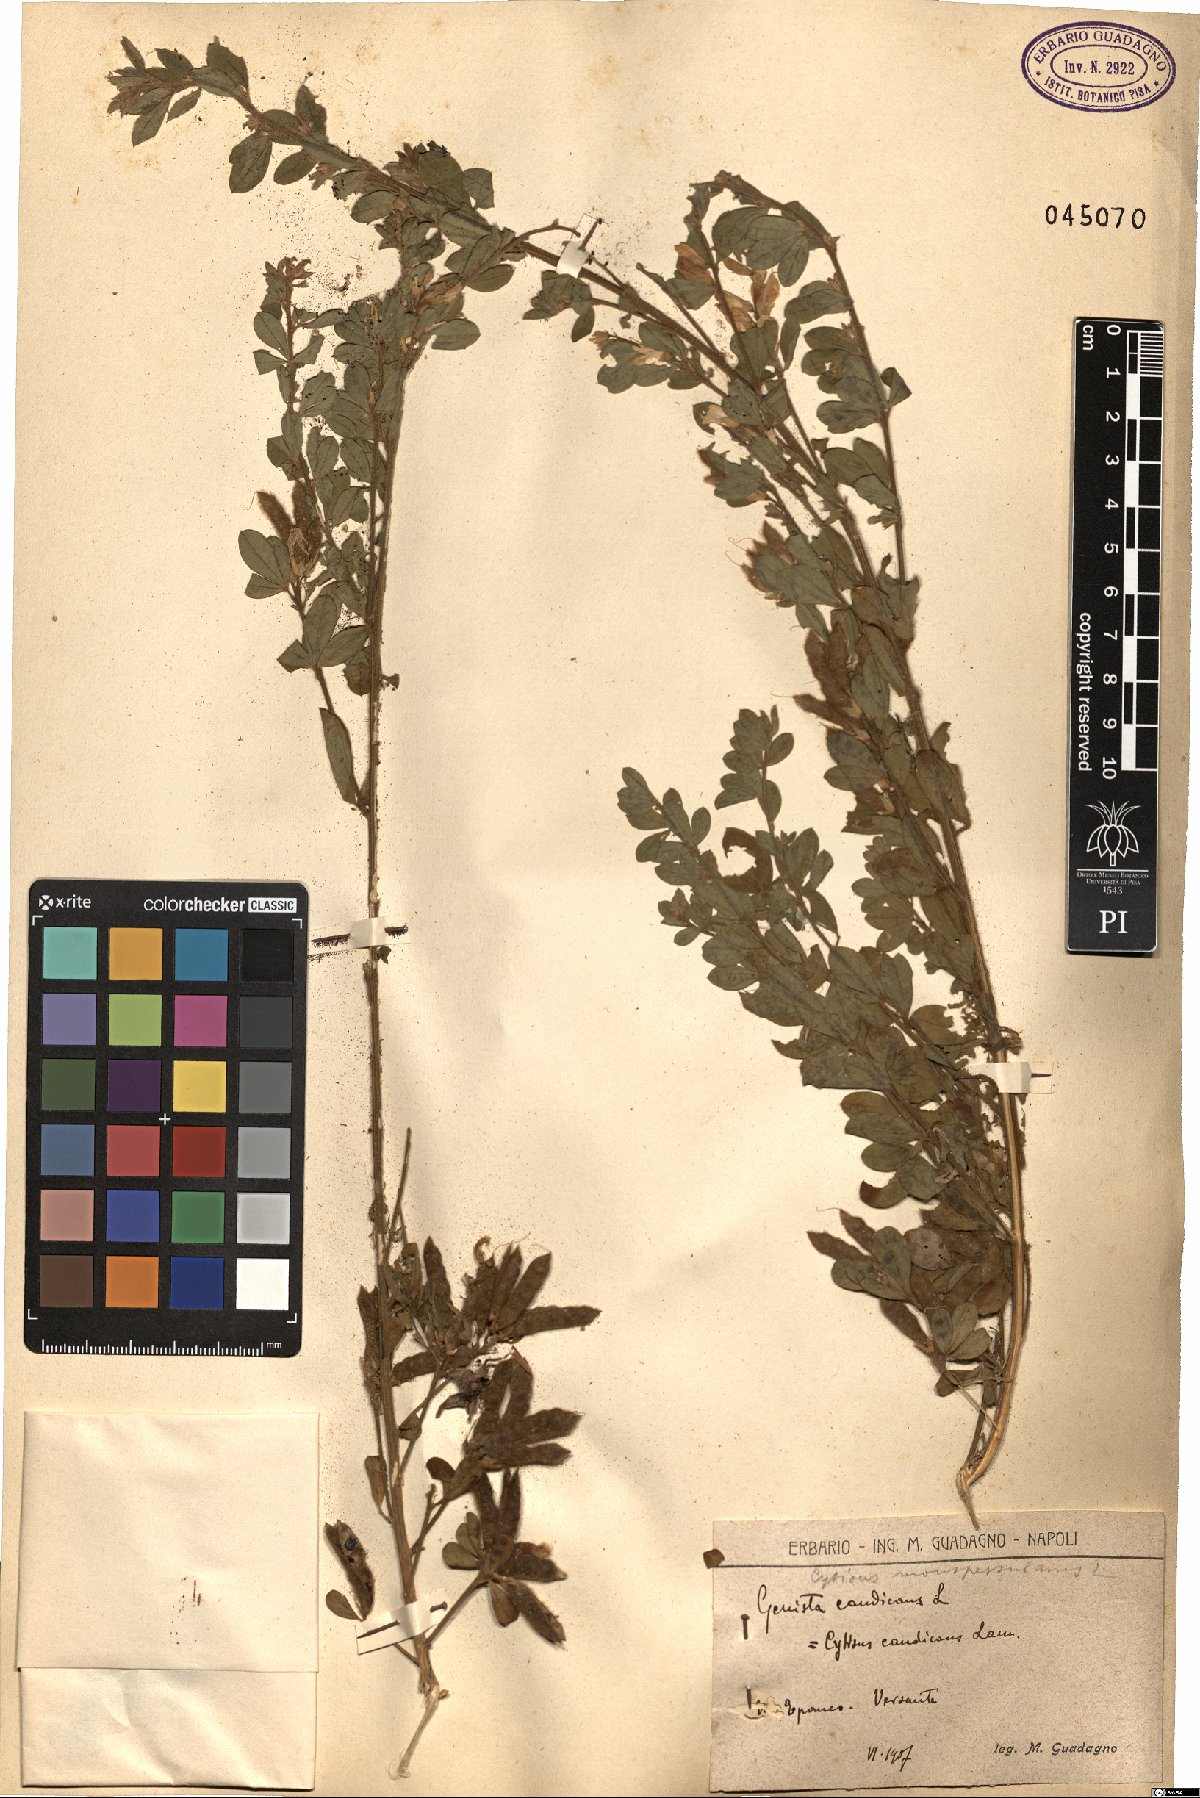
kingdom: Plantae
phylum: Tracheophyta
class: Magnoliopsida
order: Fabales
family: Fabaceae
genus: Genista
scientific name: Genista monspessulana
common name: Montpellier broom
